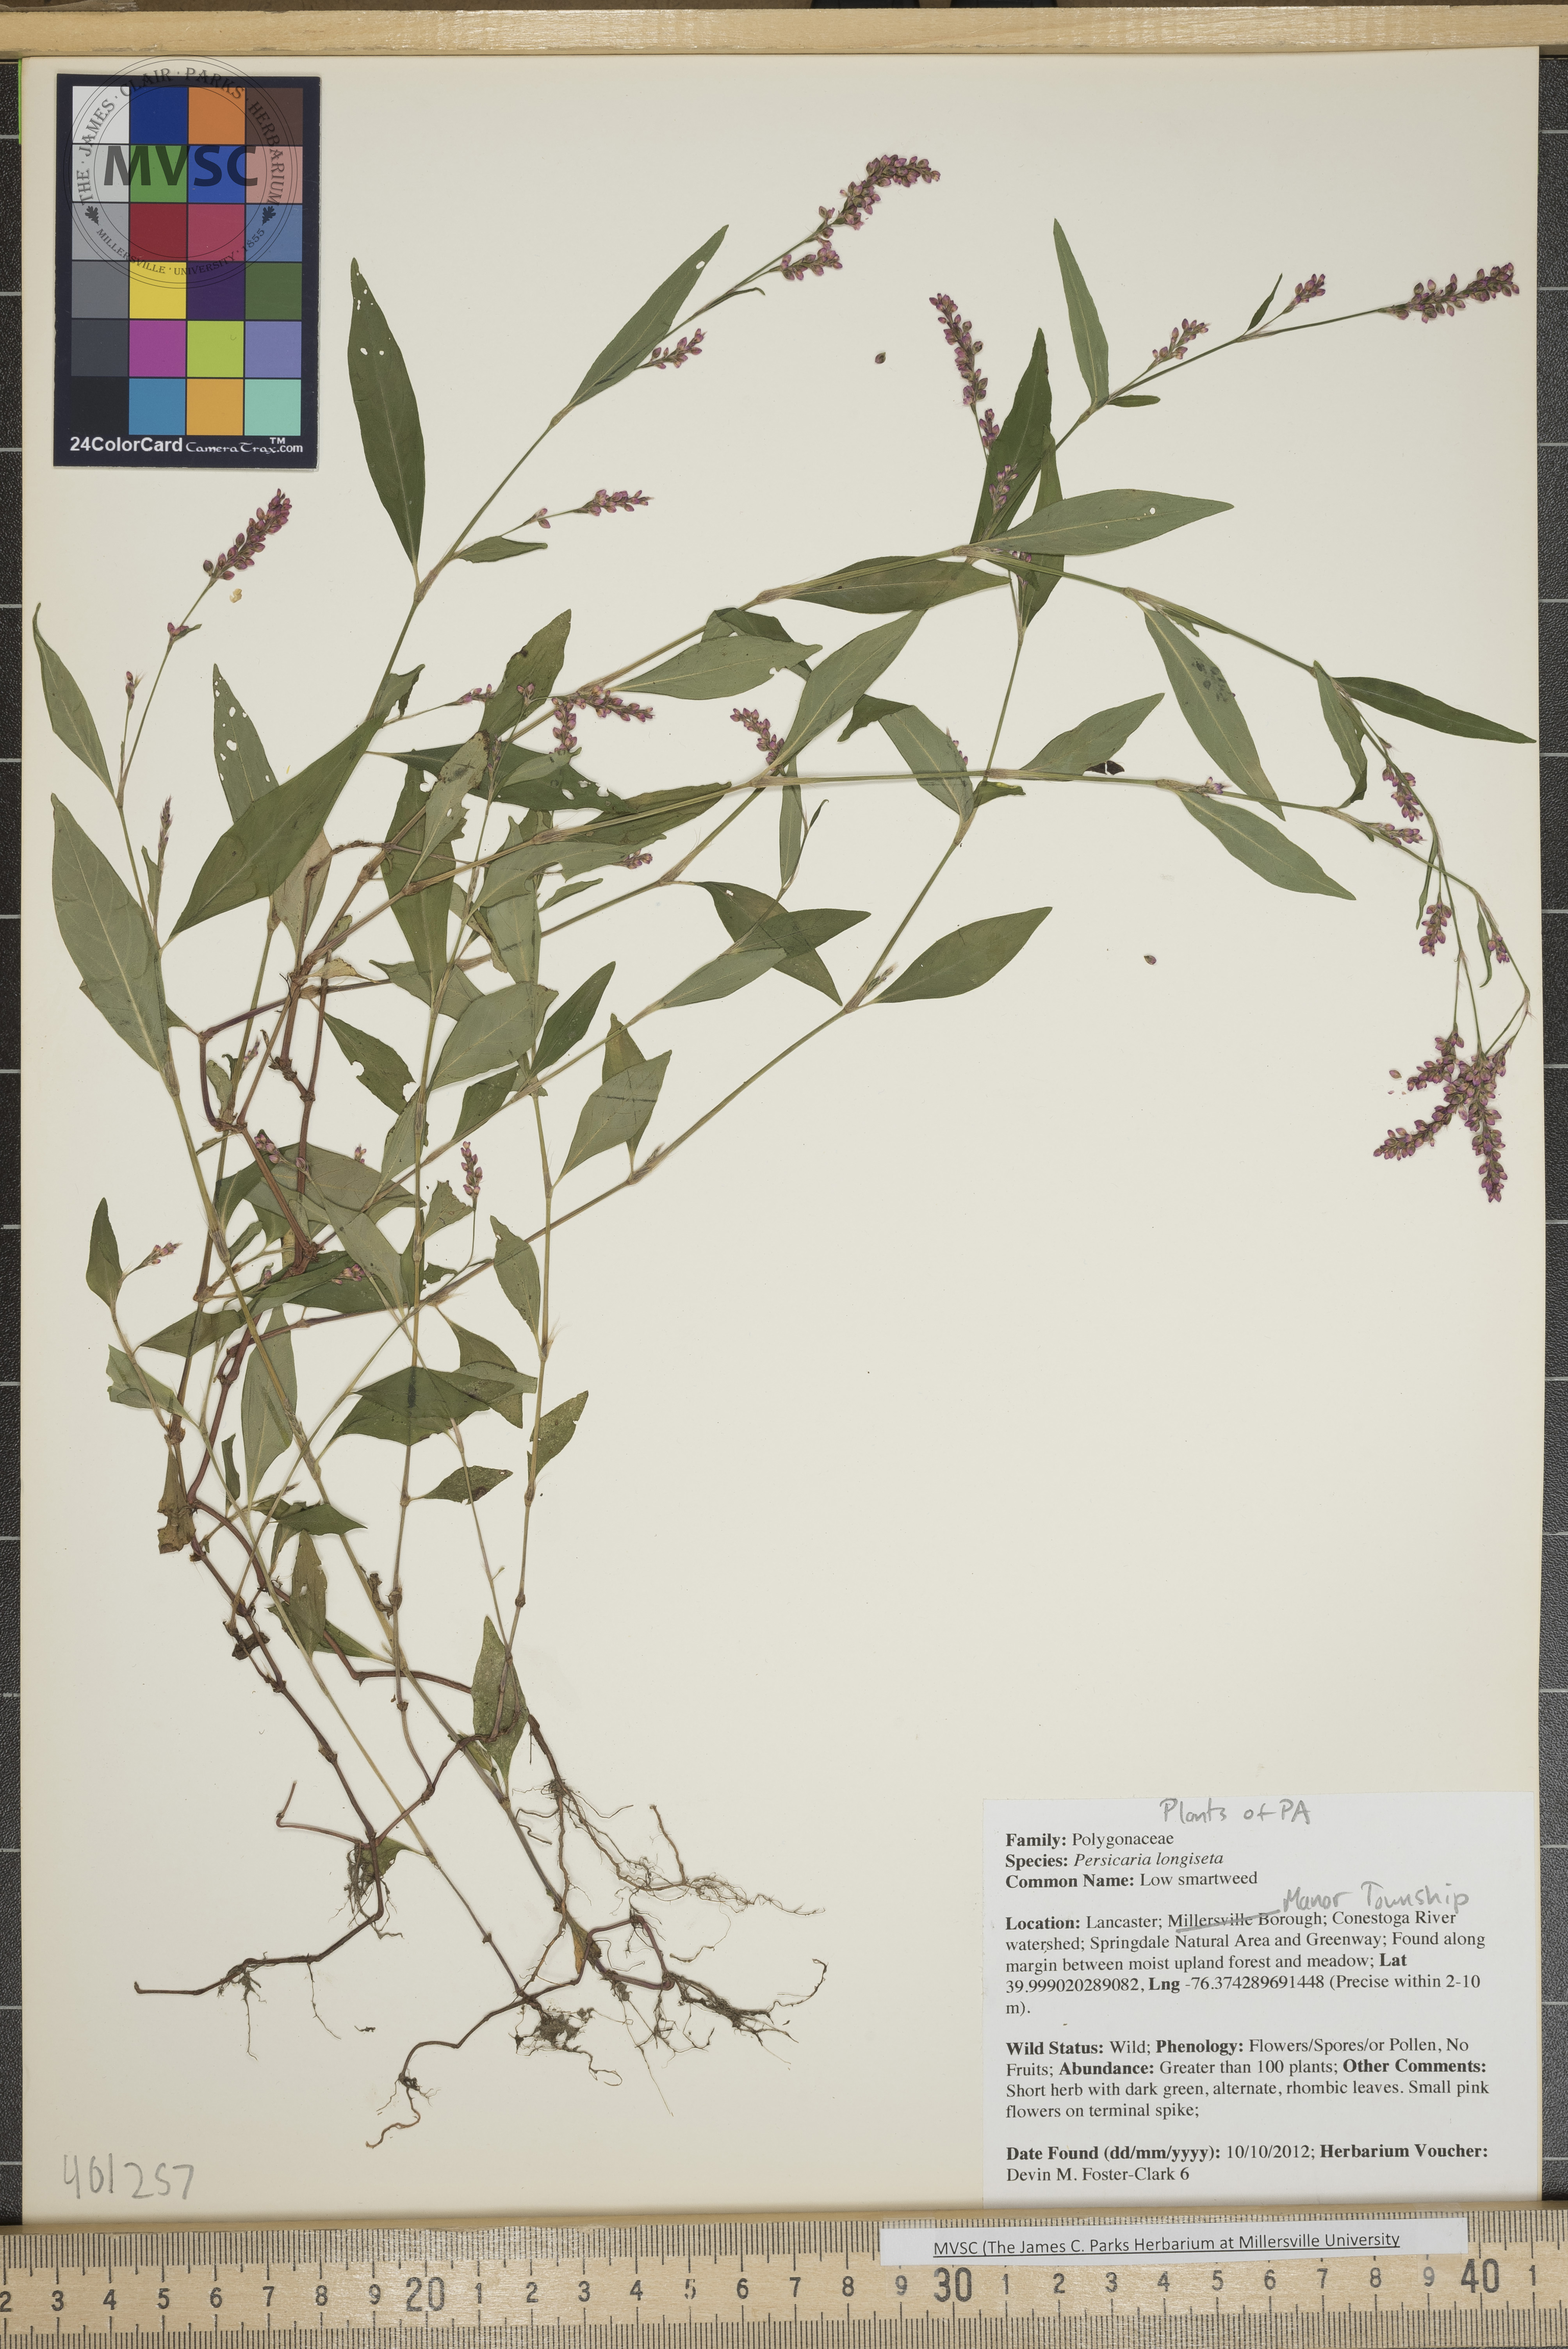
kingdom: Plantae
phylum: Tracheophyta
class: Magnoliopsida
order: Caryophyllales
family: Polygonaceae
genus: Persicaria
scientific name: Persicaria longiseta
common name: Low smartweed
